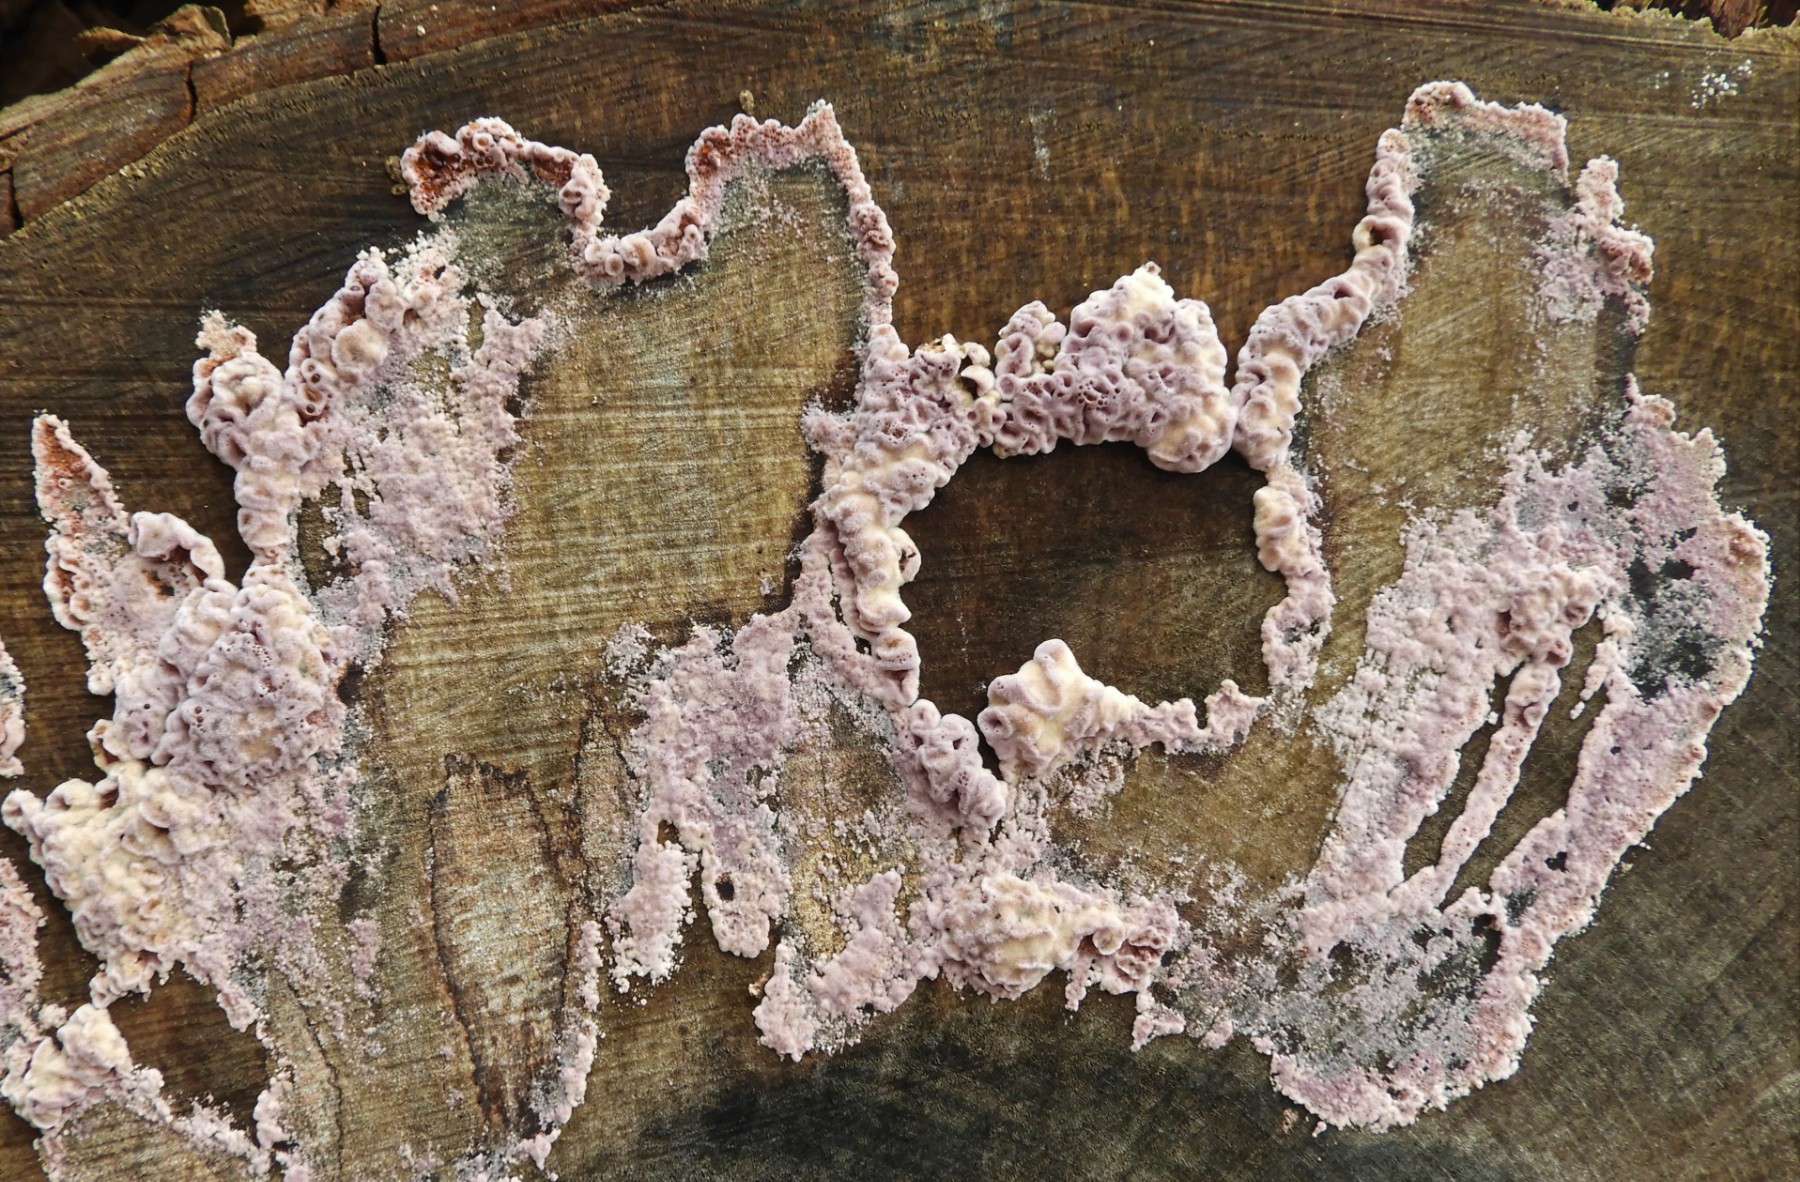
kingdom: Fungi
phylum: Basidiomycota
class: Agaricomycetes
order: Agaricales
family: Cyphellaceae
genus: Chondrostereum
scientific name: Chondrostereum purpureum
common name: purpurlædersvamp
